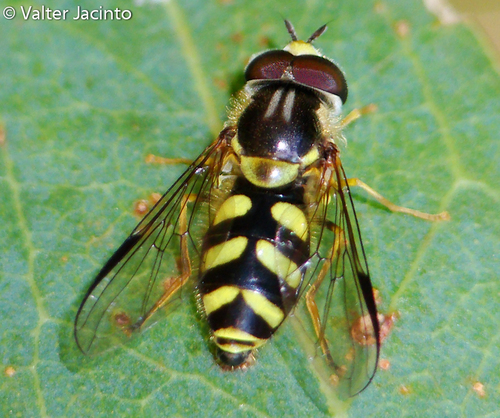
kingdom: Animalia
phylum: Arthropoda
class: Insecta
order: Diptera
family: Syrphidae
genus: Dasysyrphus
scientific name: Dasysyrphus albostriatus
